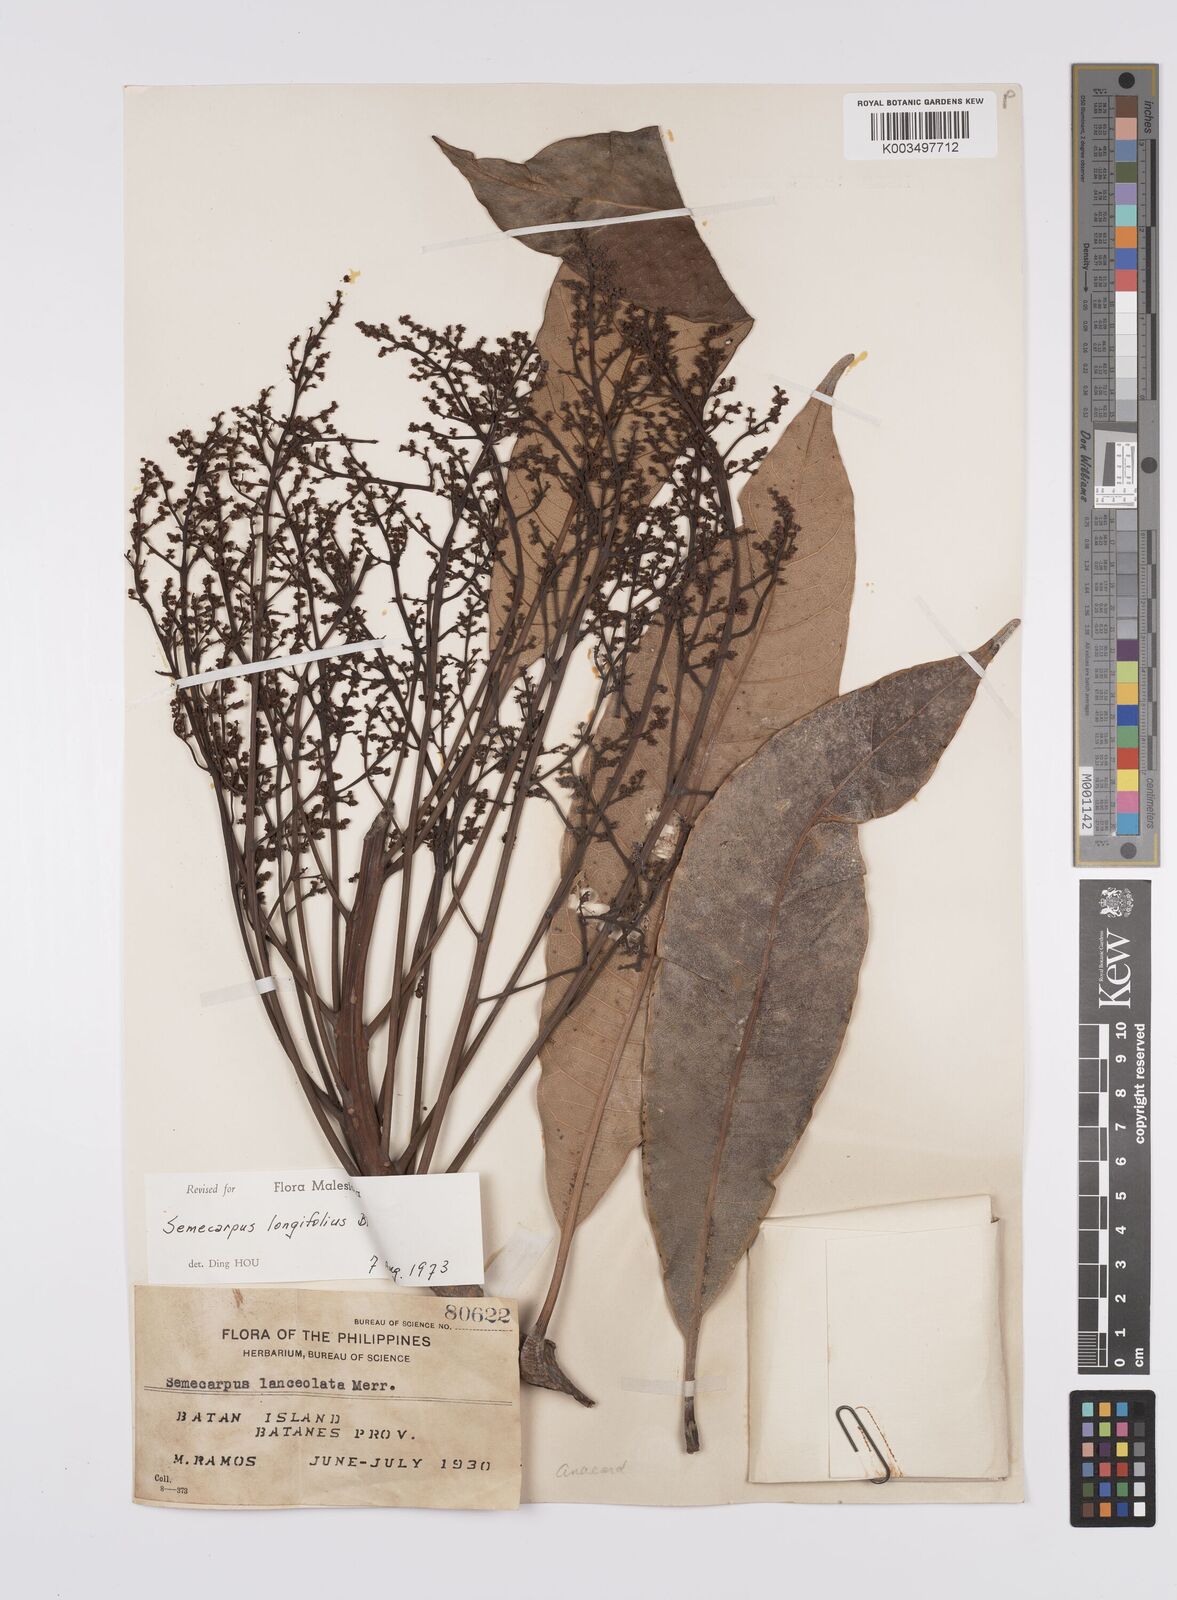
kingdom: Plantae
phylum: Tracheophyta
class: Magnoliopsida
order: Sapindales
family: Anacardiaceae
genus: Semecarpus
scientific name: Semecarpus longifolius
